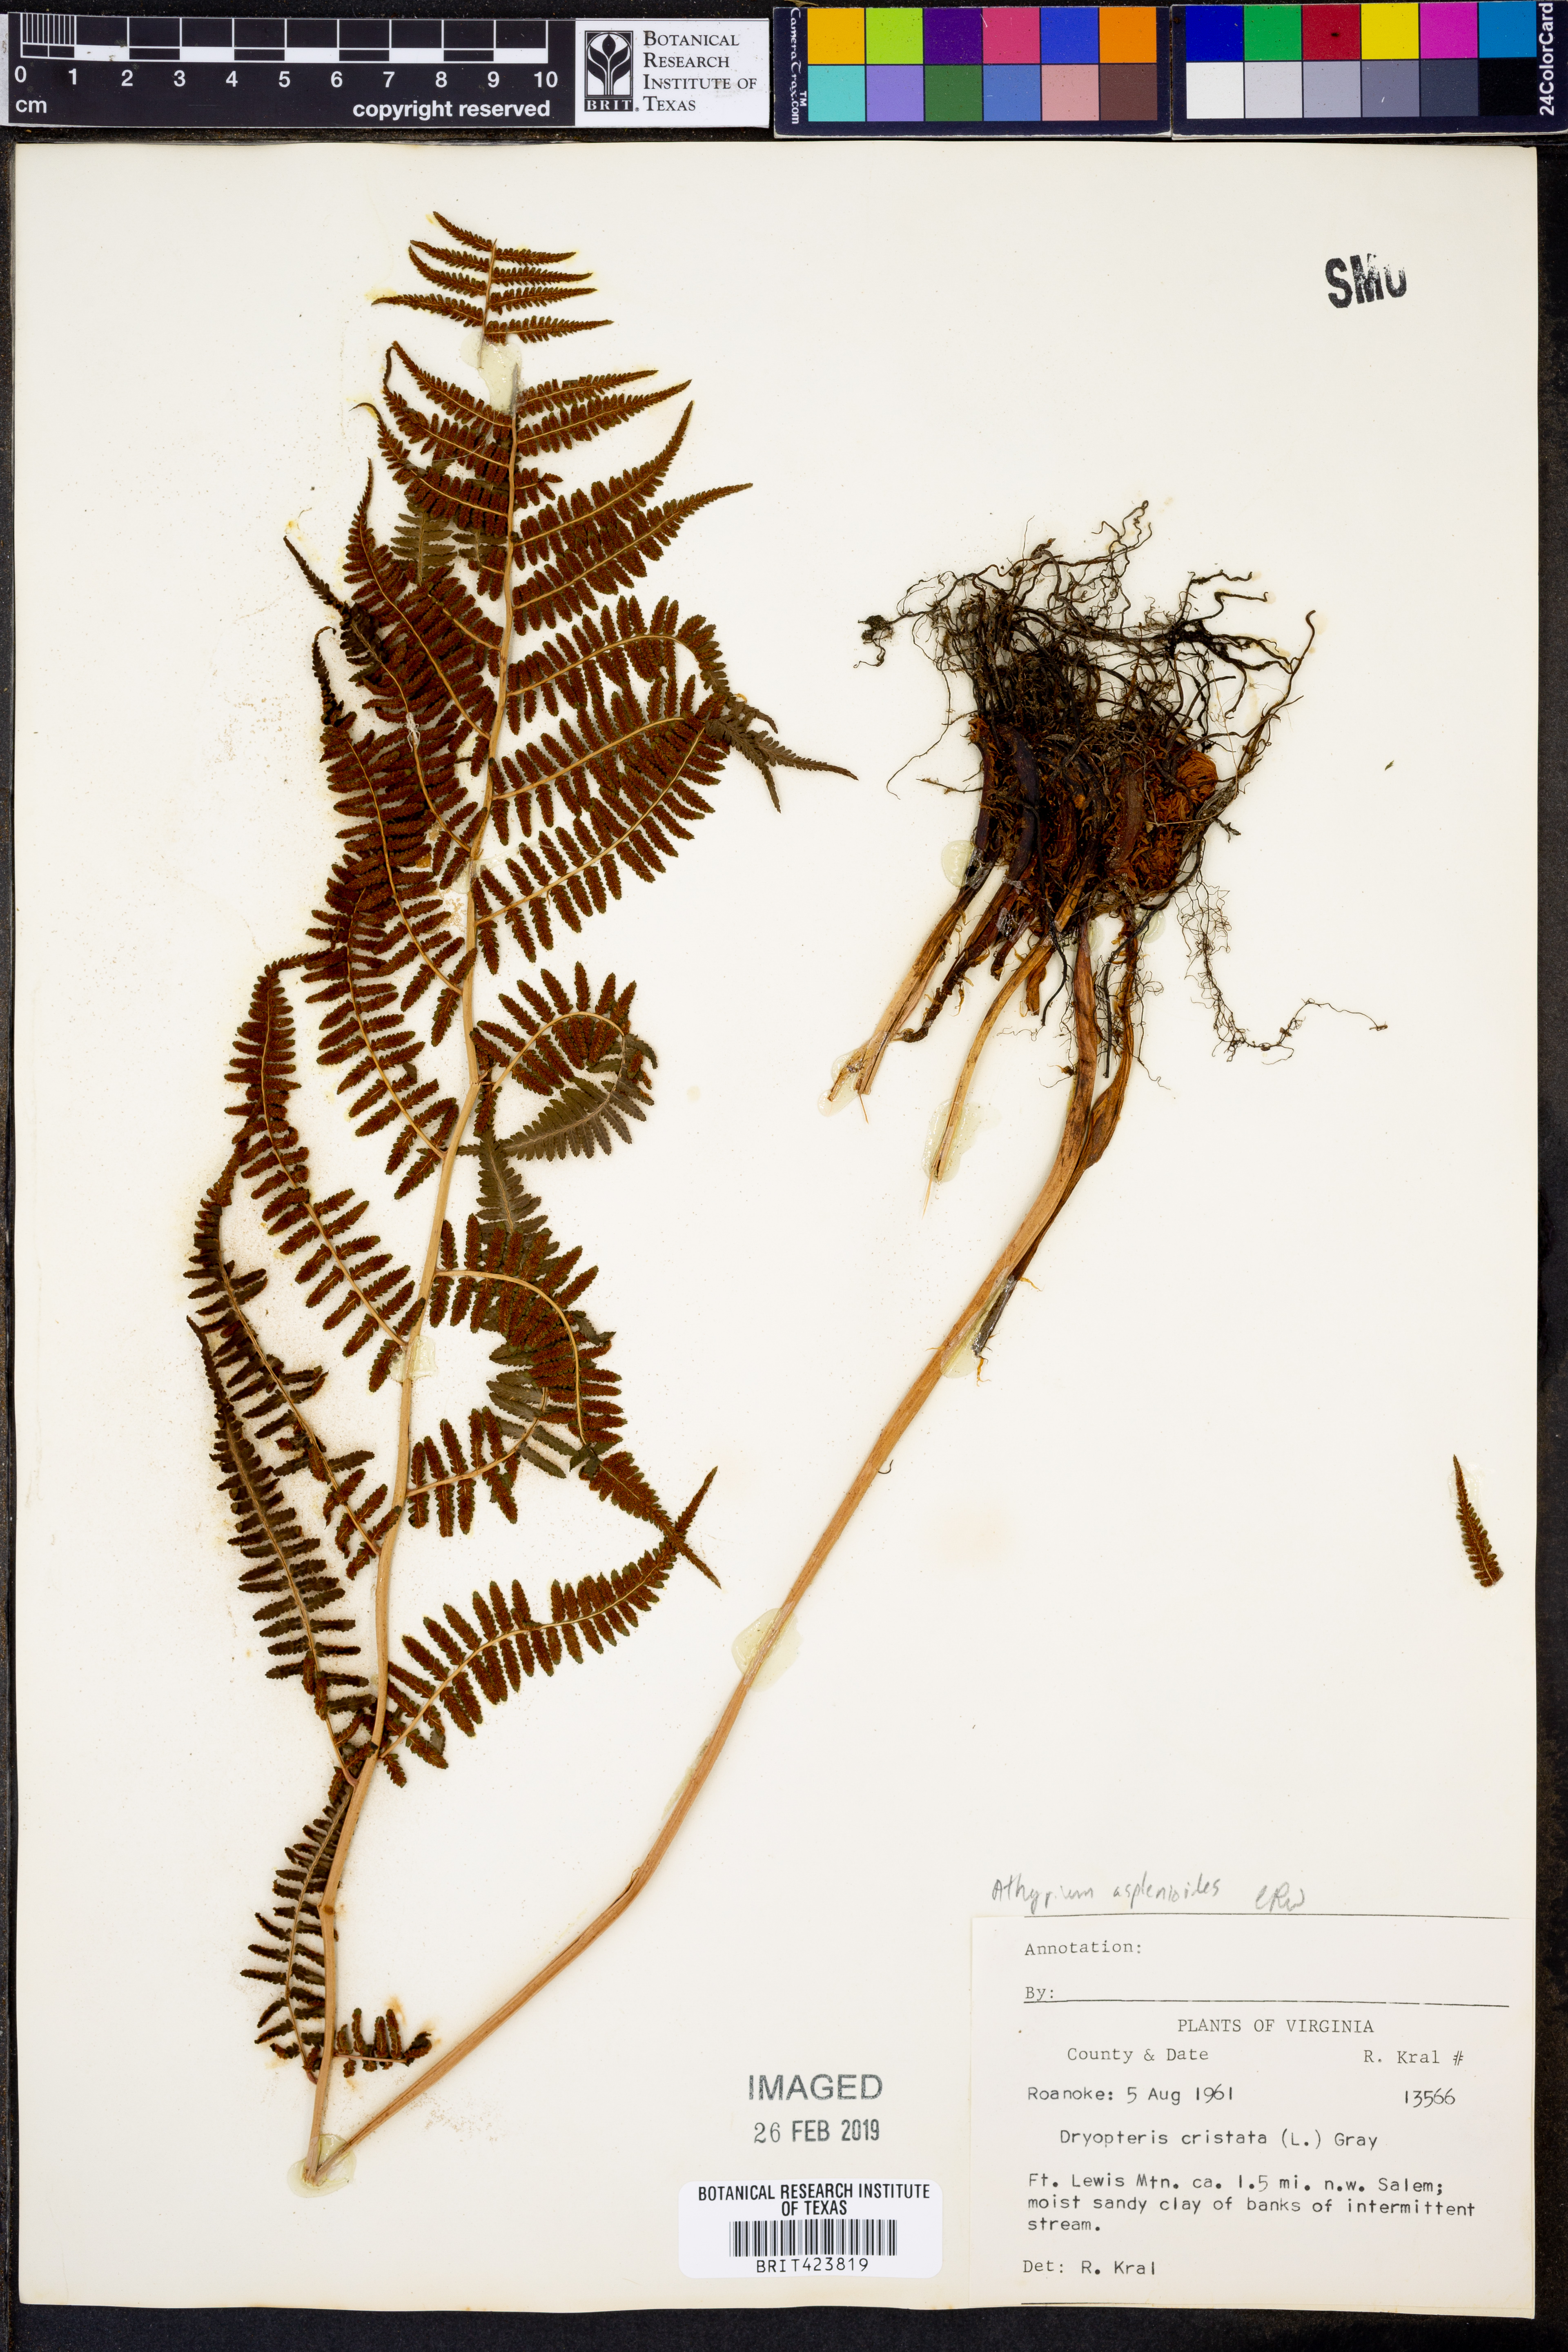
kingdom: Plantae
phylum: Tracheophyta
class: Polypodiopsida
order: Polypodiales
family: Athyriaceae
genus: Athyrium
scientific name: Athyrium asplenoides
